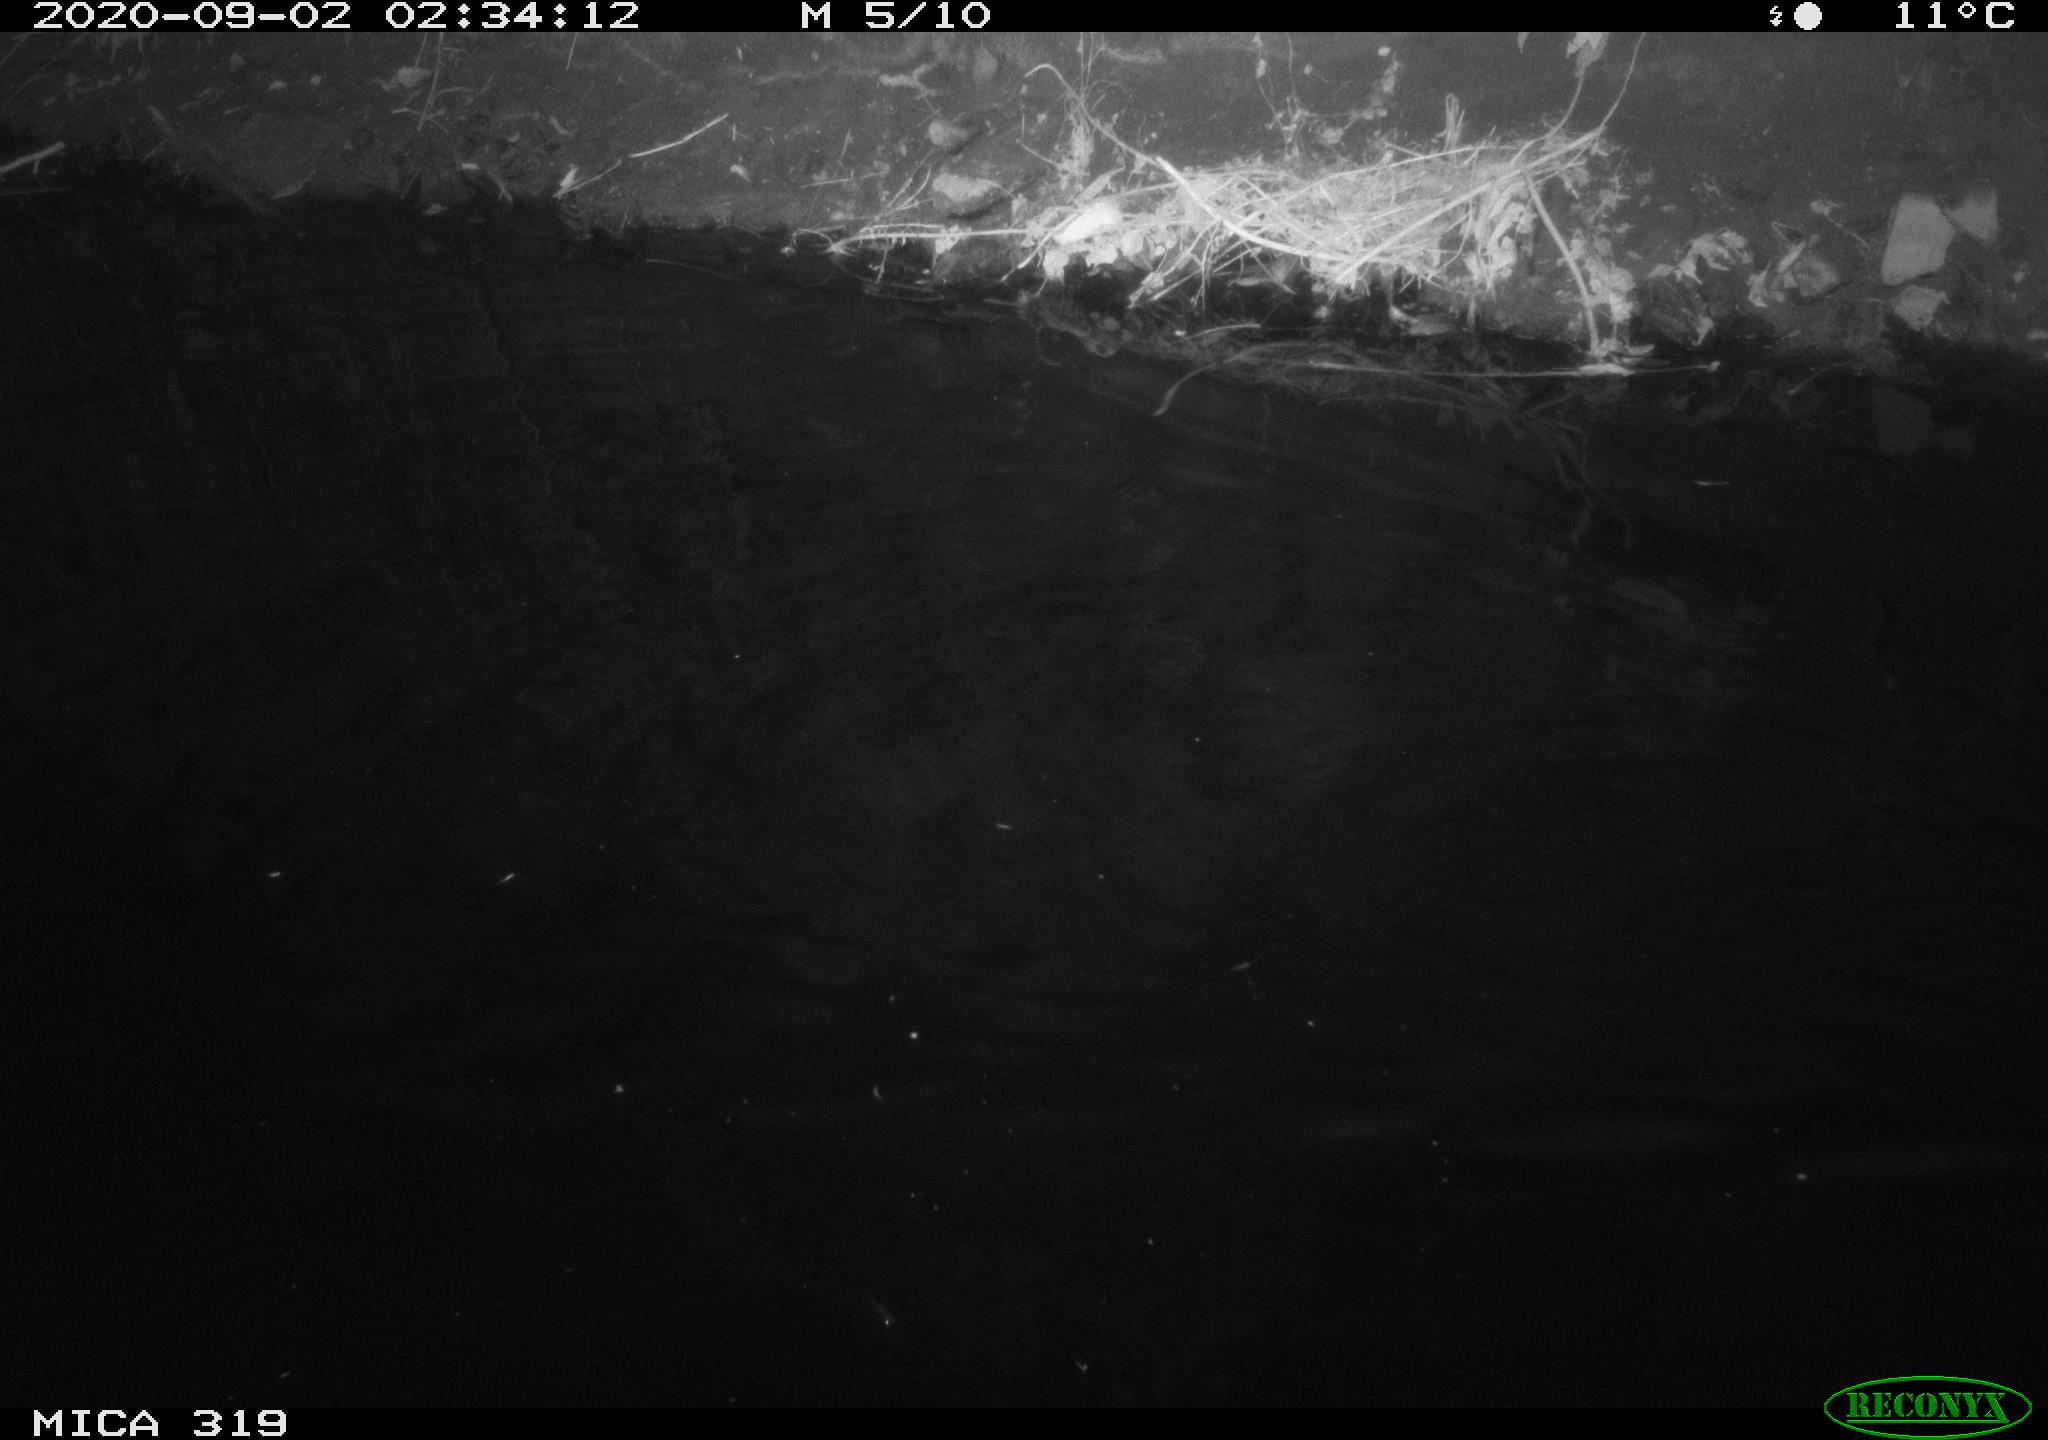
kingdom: Animalia
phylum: Chordata
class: Aves
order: Anseriformes
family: Anatidae
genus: Anas
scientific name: Anas platyrhynchos
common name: Mallard
